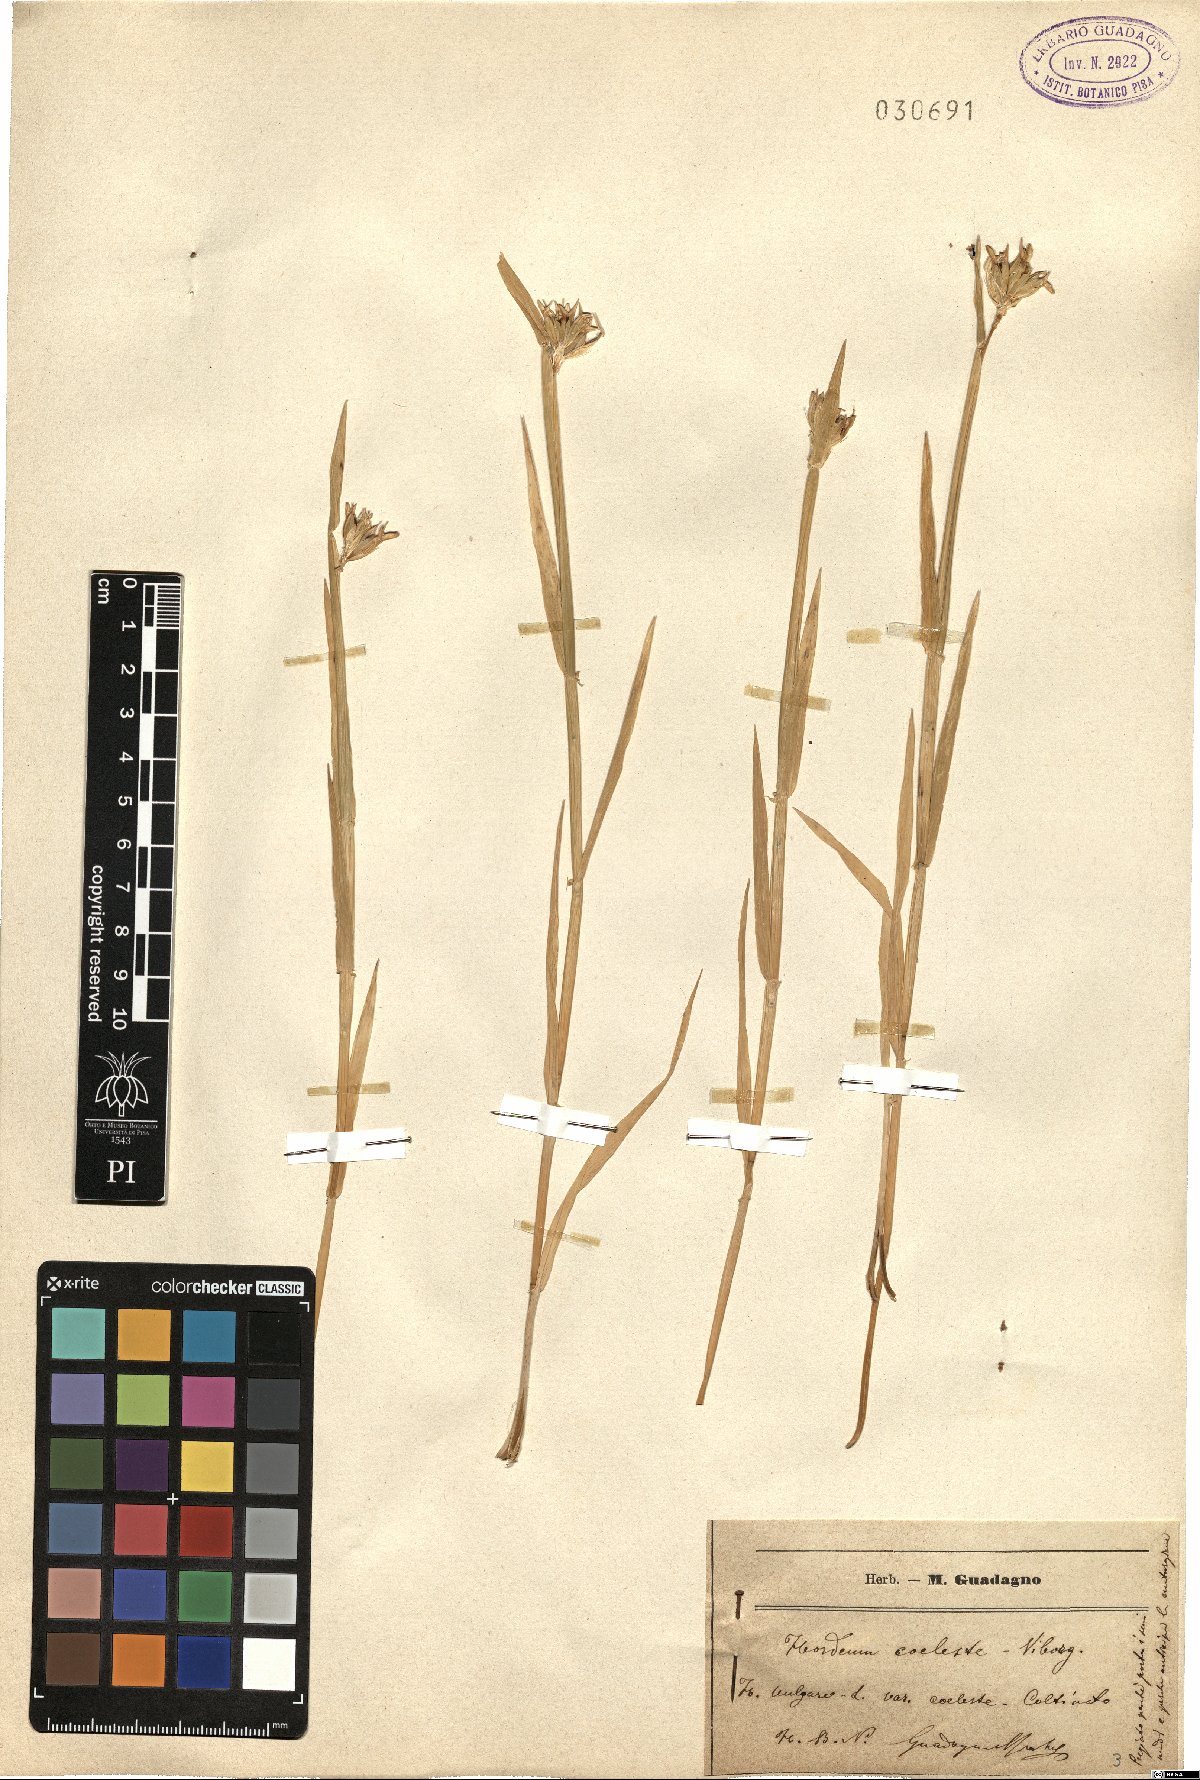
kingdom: Plantae
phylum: Tracheophyta
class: Liliopsida
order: Poales
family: Poaceae
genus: Hordeum
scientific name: Hordeum vulgare
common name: Common barley
